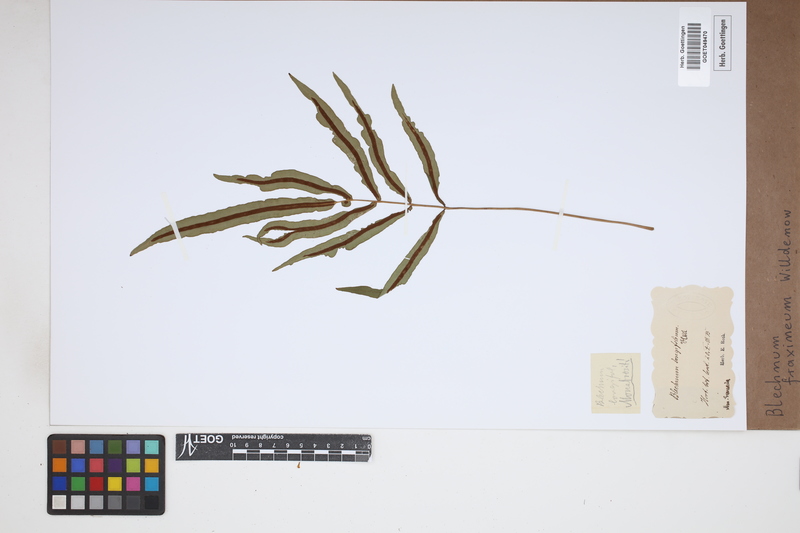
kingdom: Plantae
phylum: Tracheophyta
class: Polypodiopsida
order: Polypodiales
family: Blechnaceae
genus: Blechnum
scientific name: Blechnum gracile
